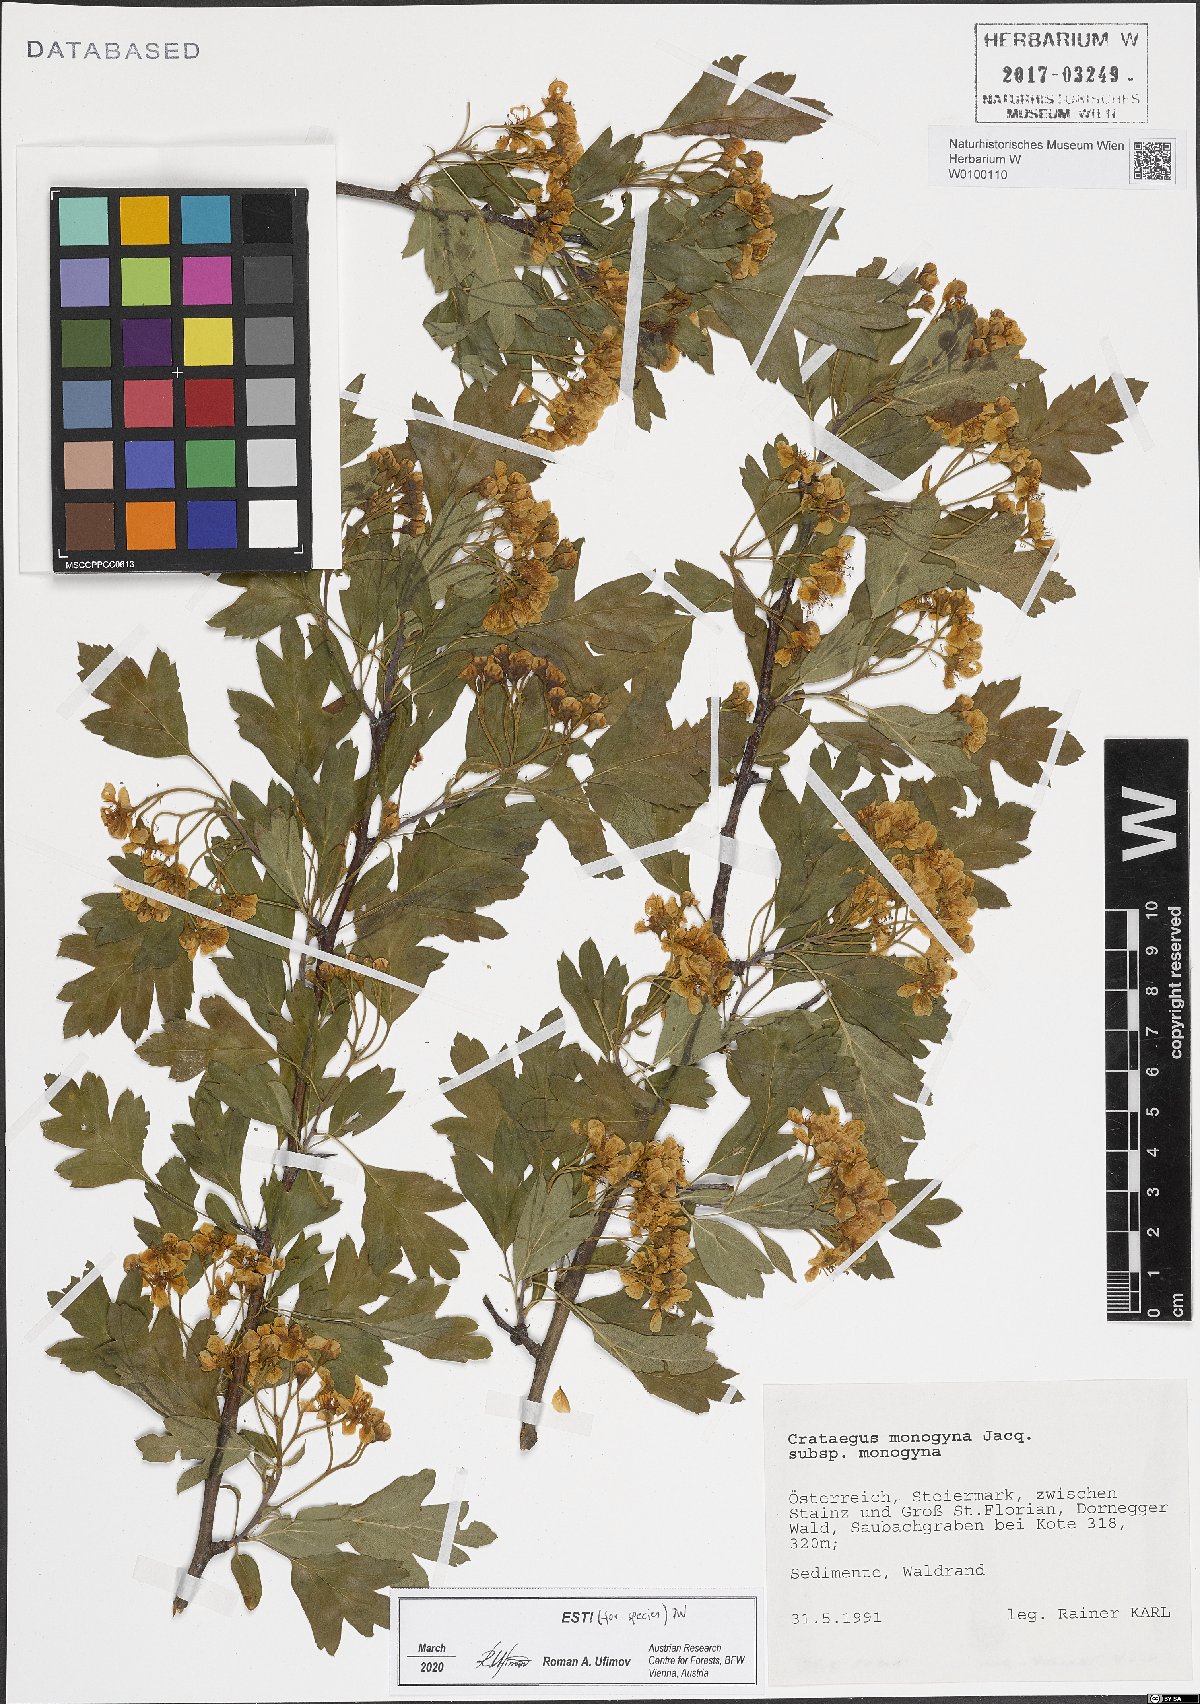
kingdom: Plantae
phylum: Tracheophyta
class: Magnoliopsida
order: Rosales
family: Rosaceae
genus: Crataegus
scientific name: Crataegus monogyna
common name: Hawthorn
